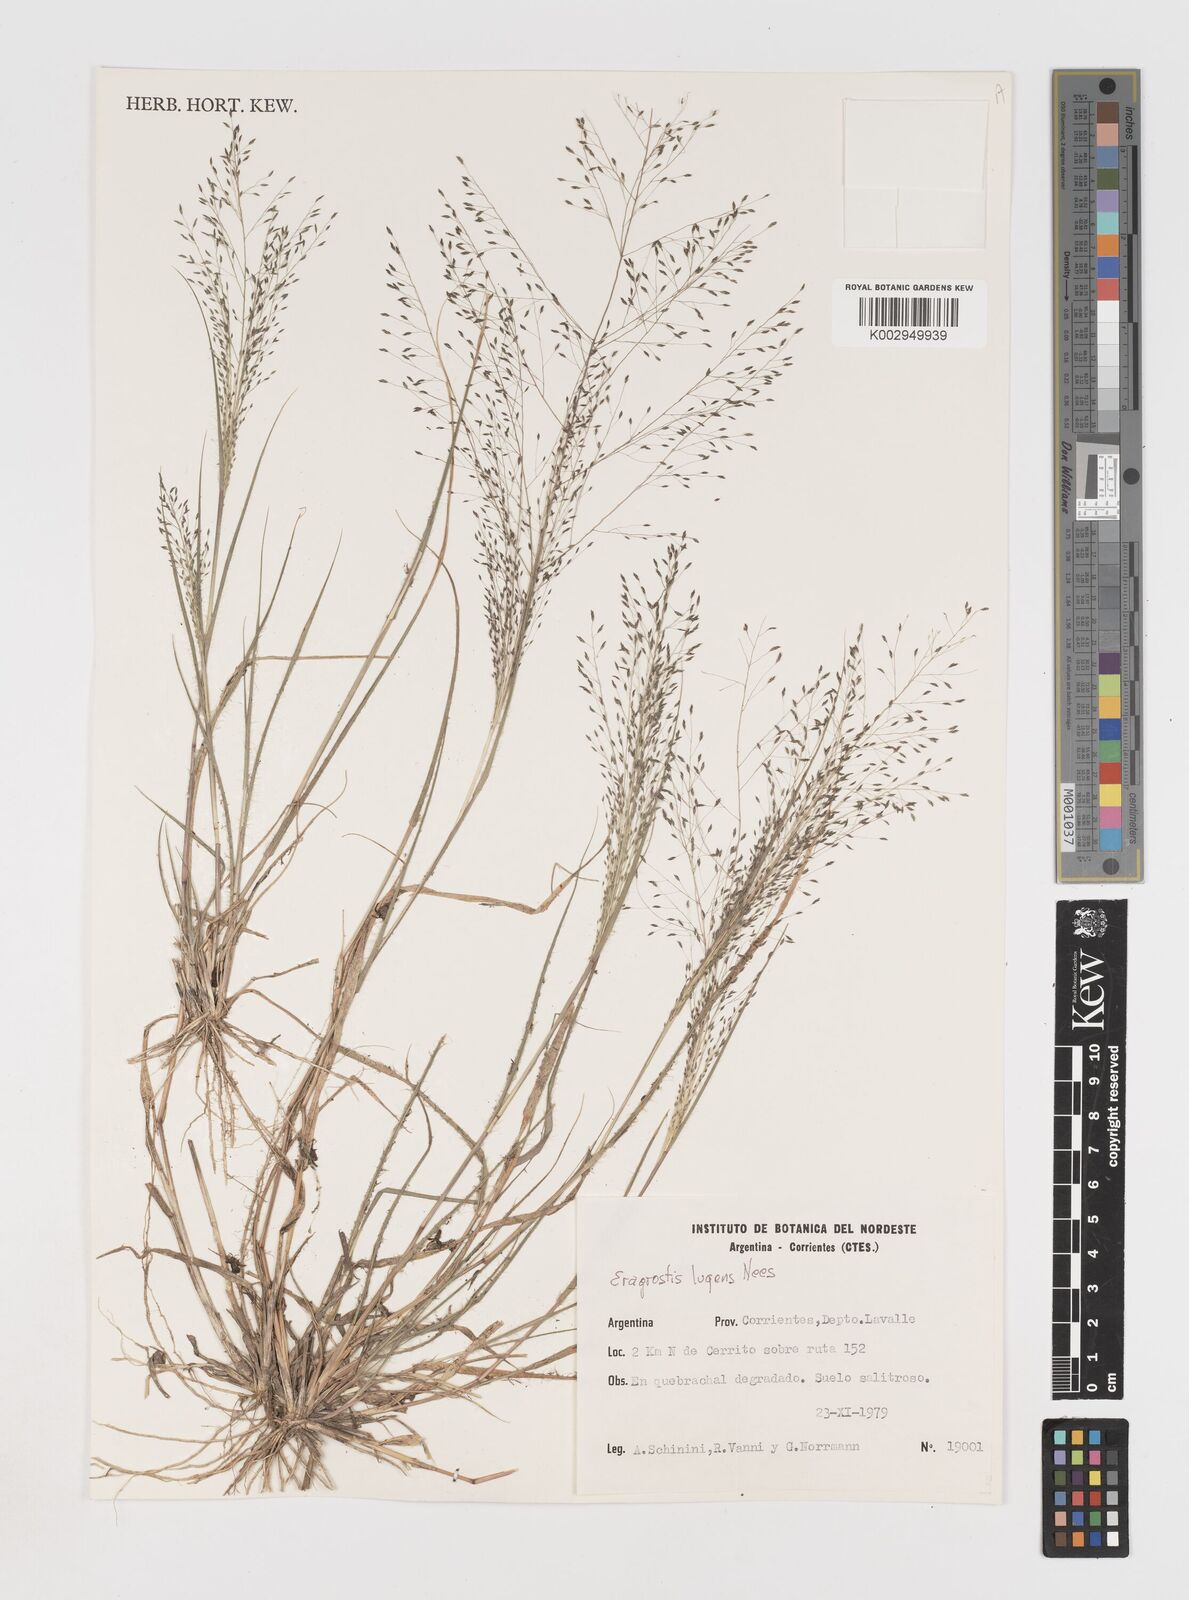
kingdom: Plantae
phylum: Tracheophyta
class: Liliopsida
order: Poales
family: Poaceae
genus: Eragrostis
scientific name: Eragrostis lugens
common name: Mourning love grass
